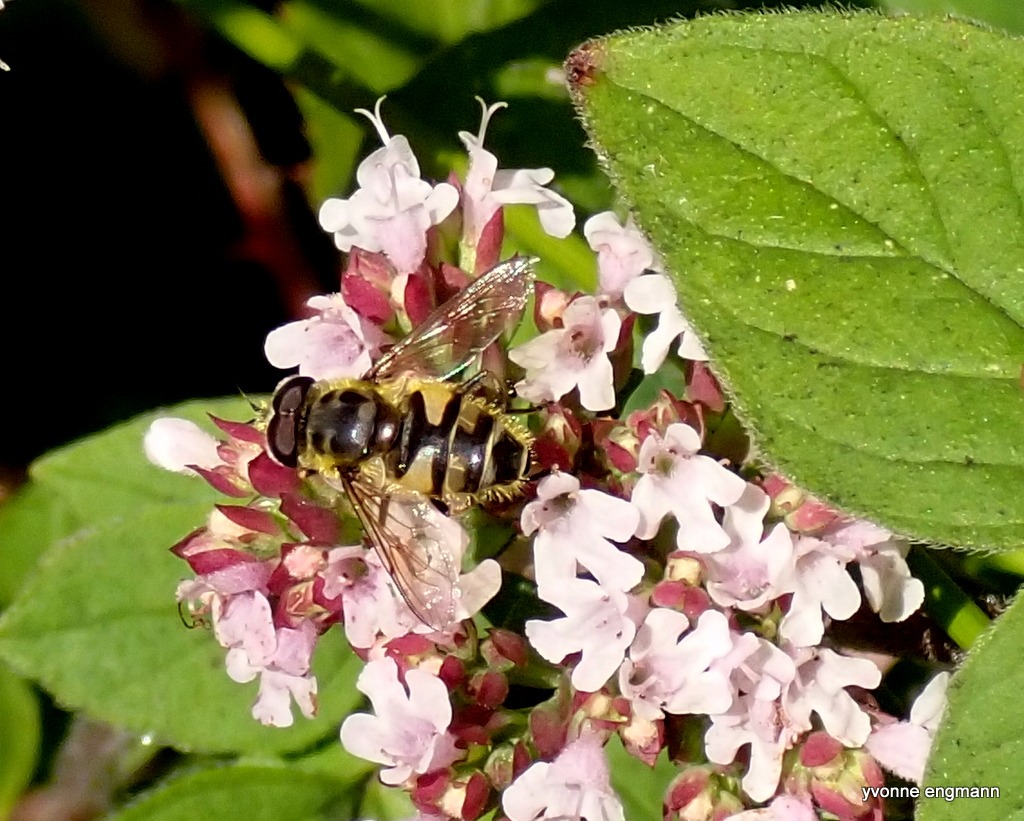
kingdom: Animalia
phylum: Arthropoda
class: Insecta
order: Diptera
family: Syrphidae
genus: Myathropa
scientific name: Myathropa florea
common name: Dødningehoved-svirreflue
